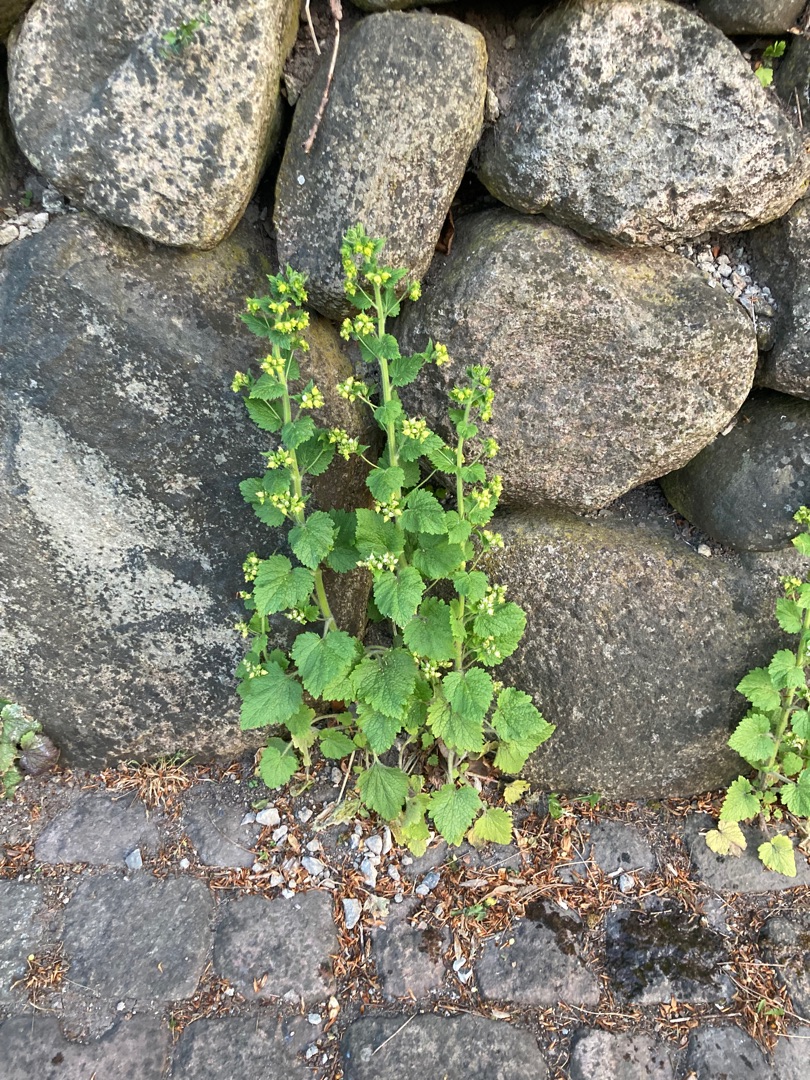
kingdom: Plantae
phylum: Tracheophyta
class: Magnoliopsida
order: Lamiales
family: Scrophulariaceae
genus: Scrophularia
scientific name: Scrophularia vernalis
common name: Vår-brunrod
